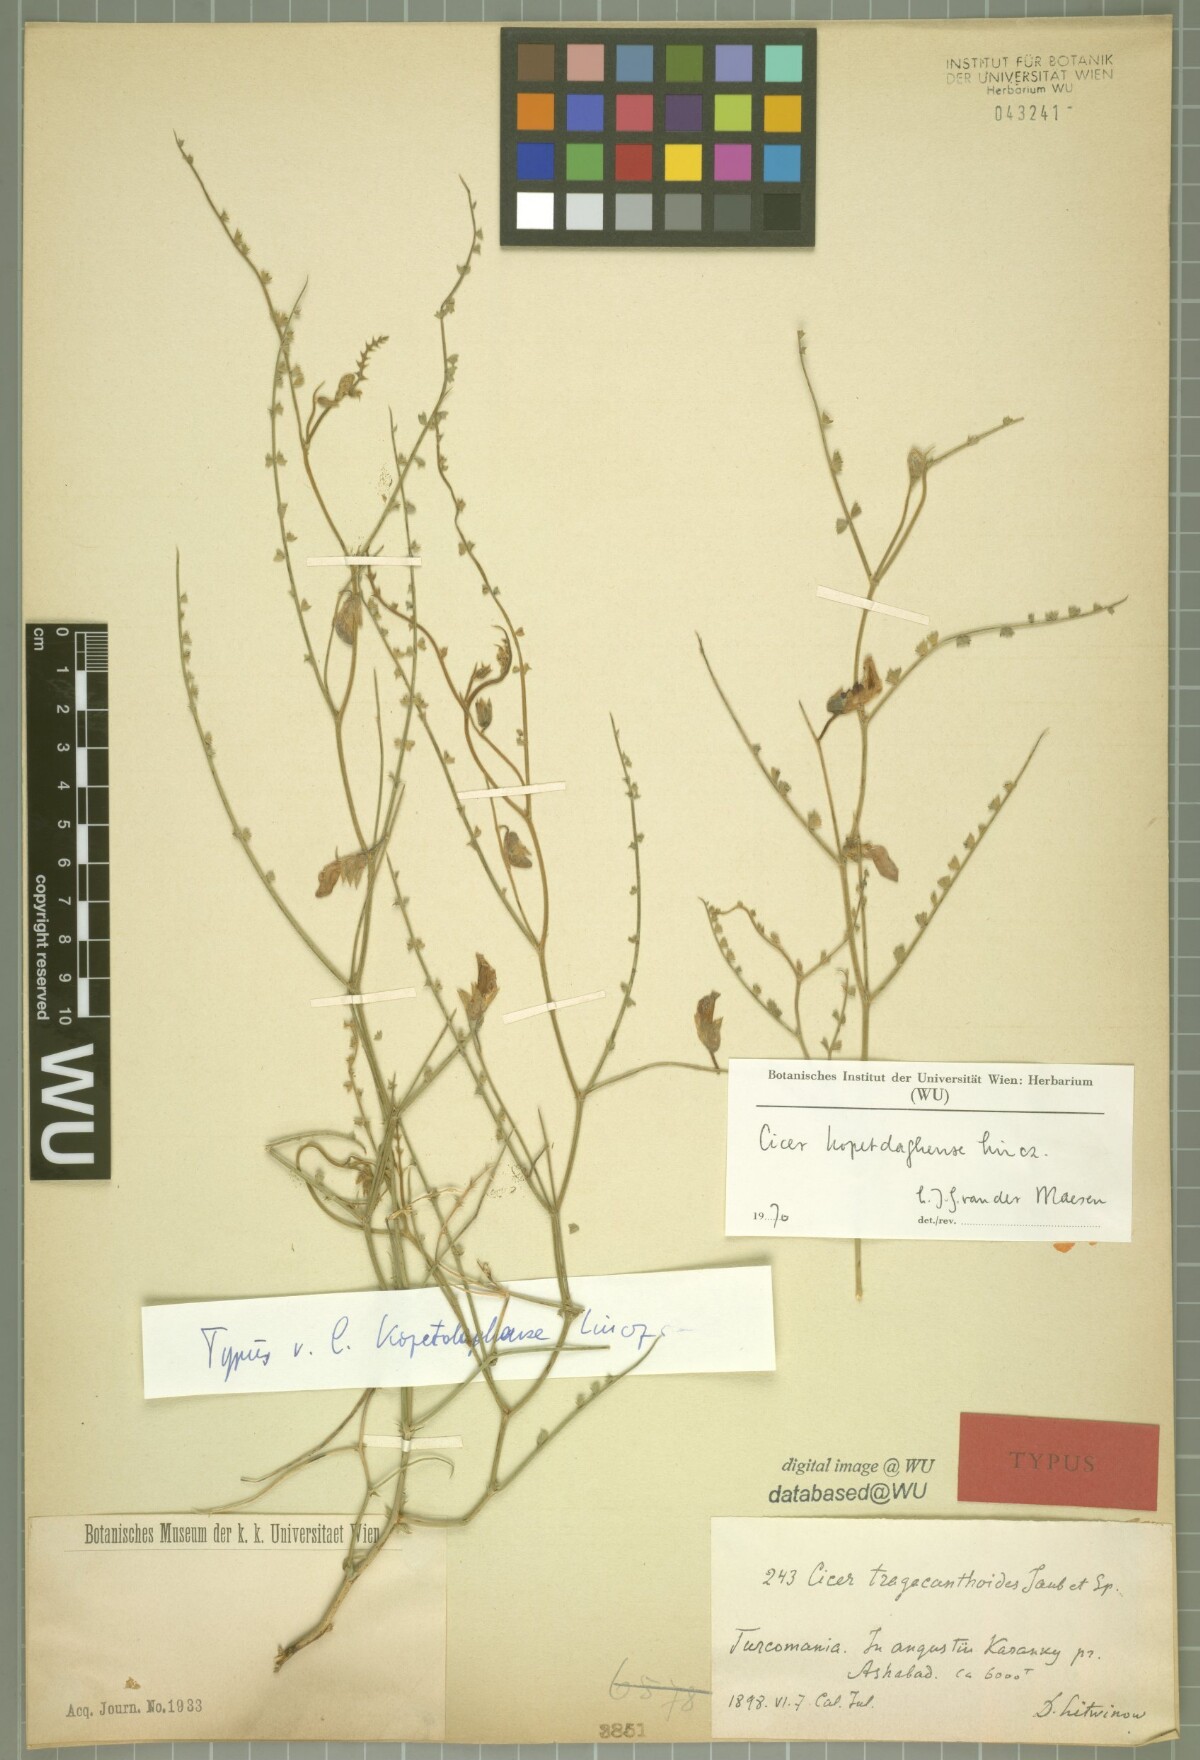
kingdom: Plantae
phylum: Tracheophyta
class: Magnoliopsida
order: Fabales
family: Fabaceae
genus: Cicer
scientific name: Cicer tragacanthoides
